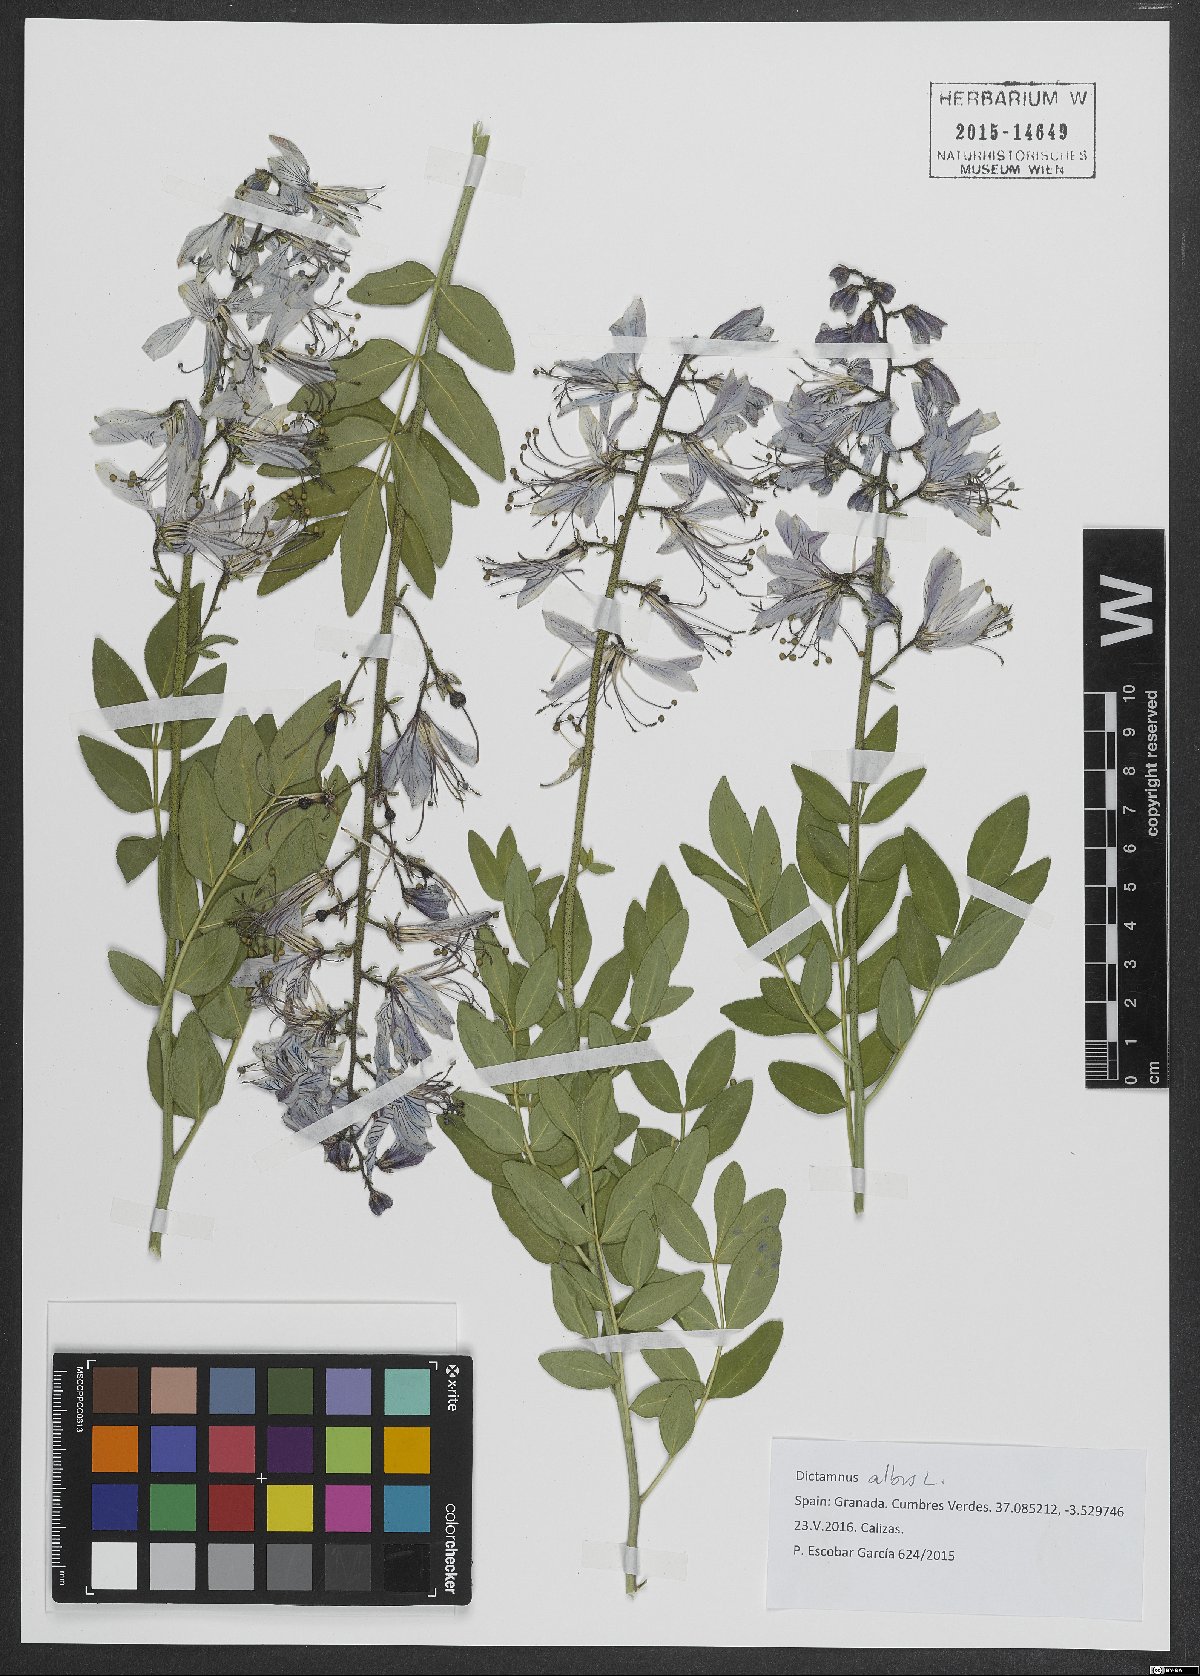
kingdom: Plantae
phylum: Tracheophyta
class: Magnoliopsida
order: Sapindales
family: Rutaceae
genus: Dictamnus
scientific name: Dictamnus albus
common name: Gasplant
